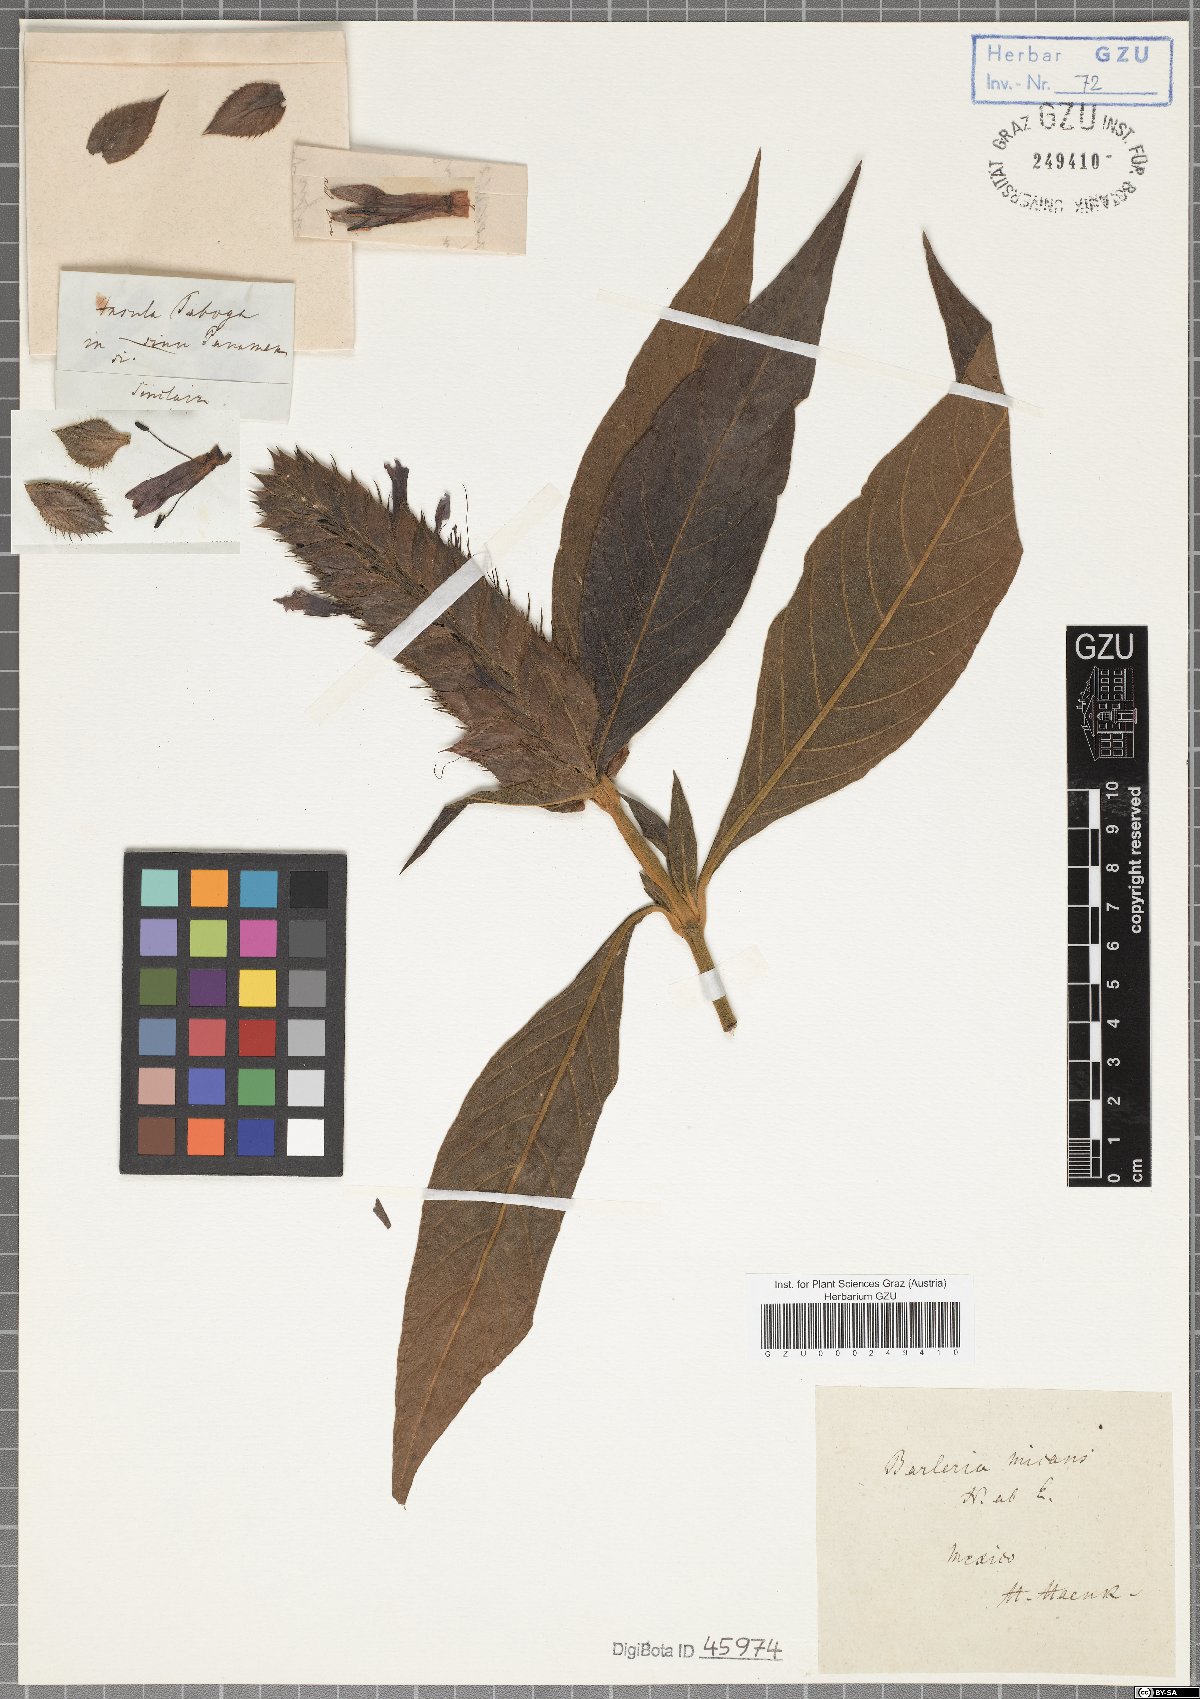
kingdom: Plantae
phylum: Tracheophyta
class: Magnoliopsida
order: Lamiales
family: Acanthaceae
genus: Barleria
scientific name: Barleria oenotheroides
